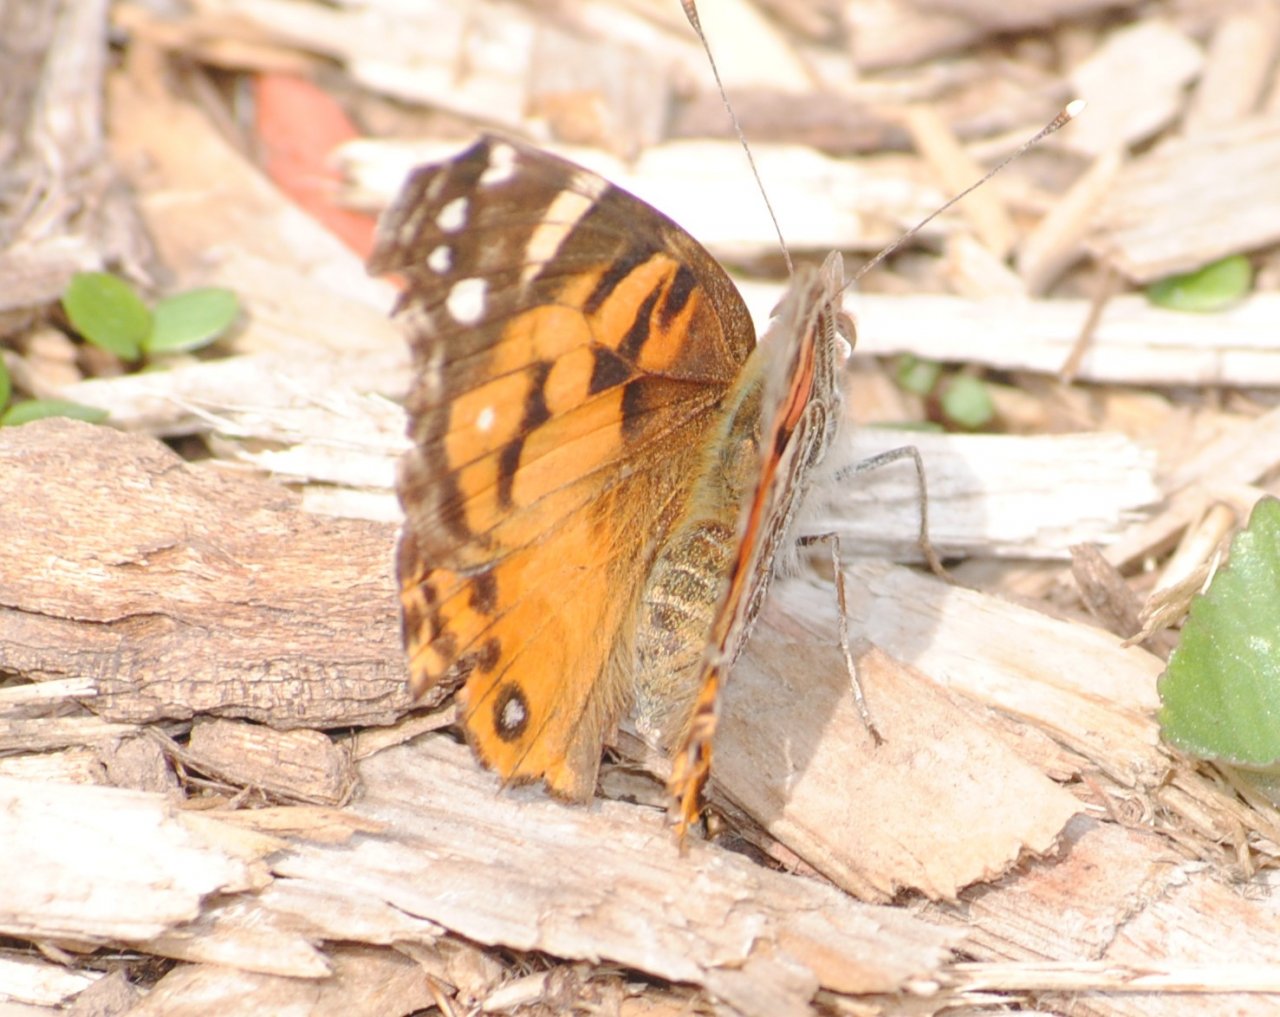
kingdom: Animalia
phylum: Arthropoda
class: Insecta
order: Lepidoptera
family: Nymphalidae
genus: Vanessa
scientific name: Vanessa virginiensis
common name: American Lady
